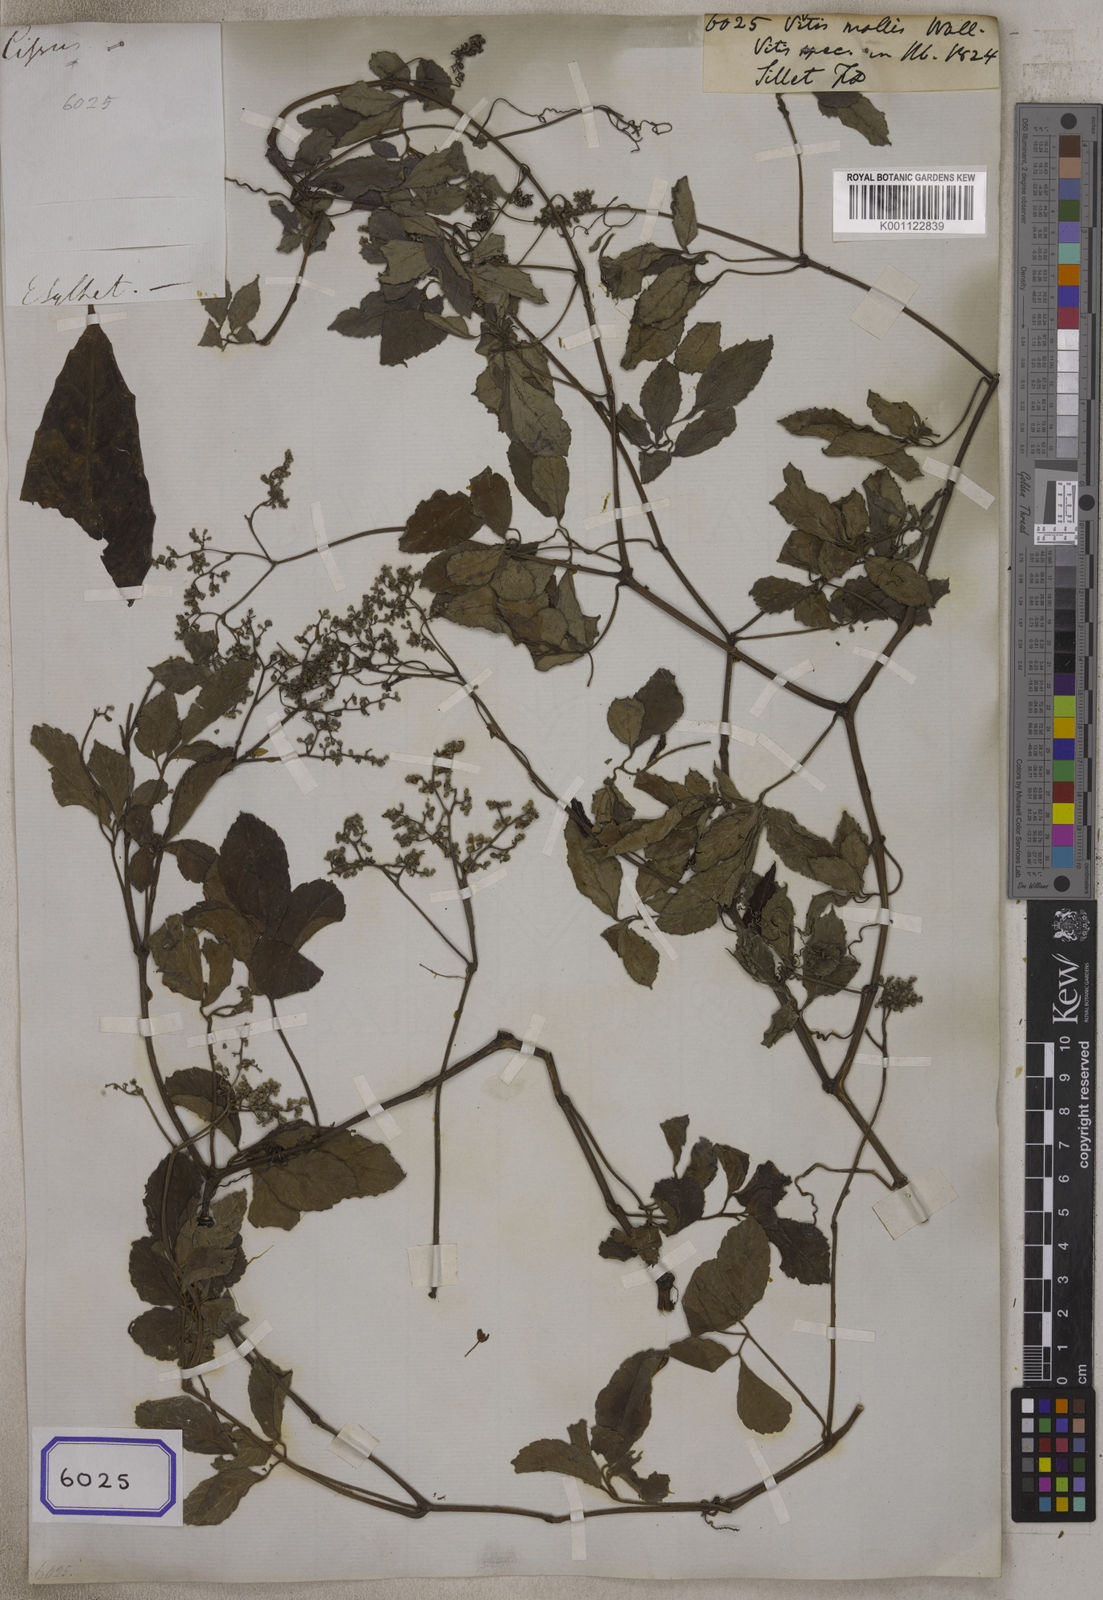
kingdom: Plantae
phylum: Tracheophyta
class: Magnoliopsida
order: Vitales
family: Vitaceae
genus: Vitis
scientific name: Vitis
